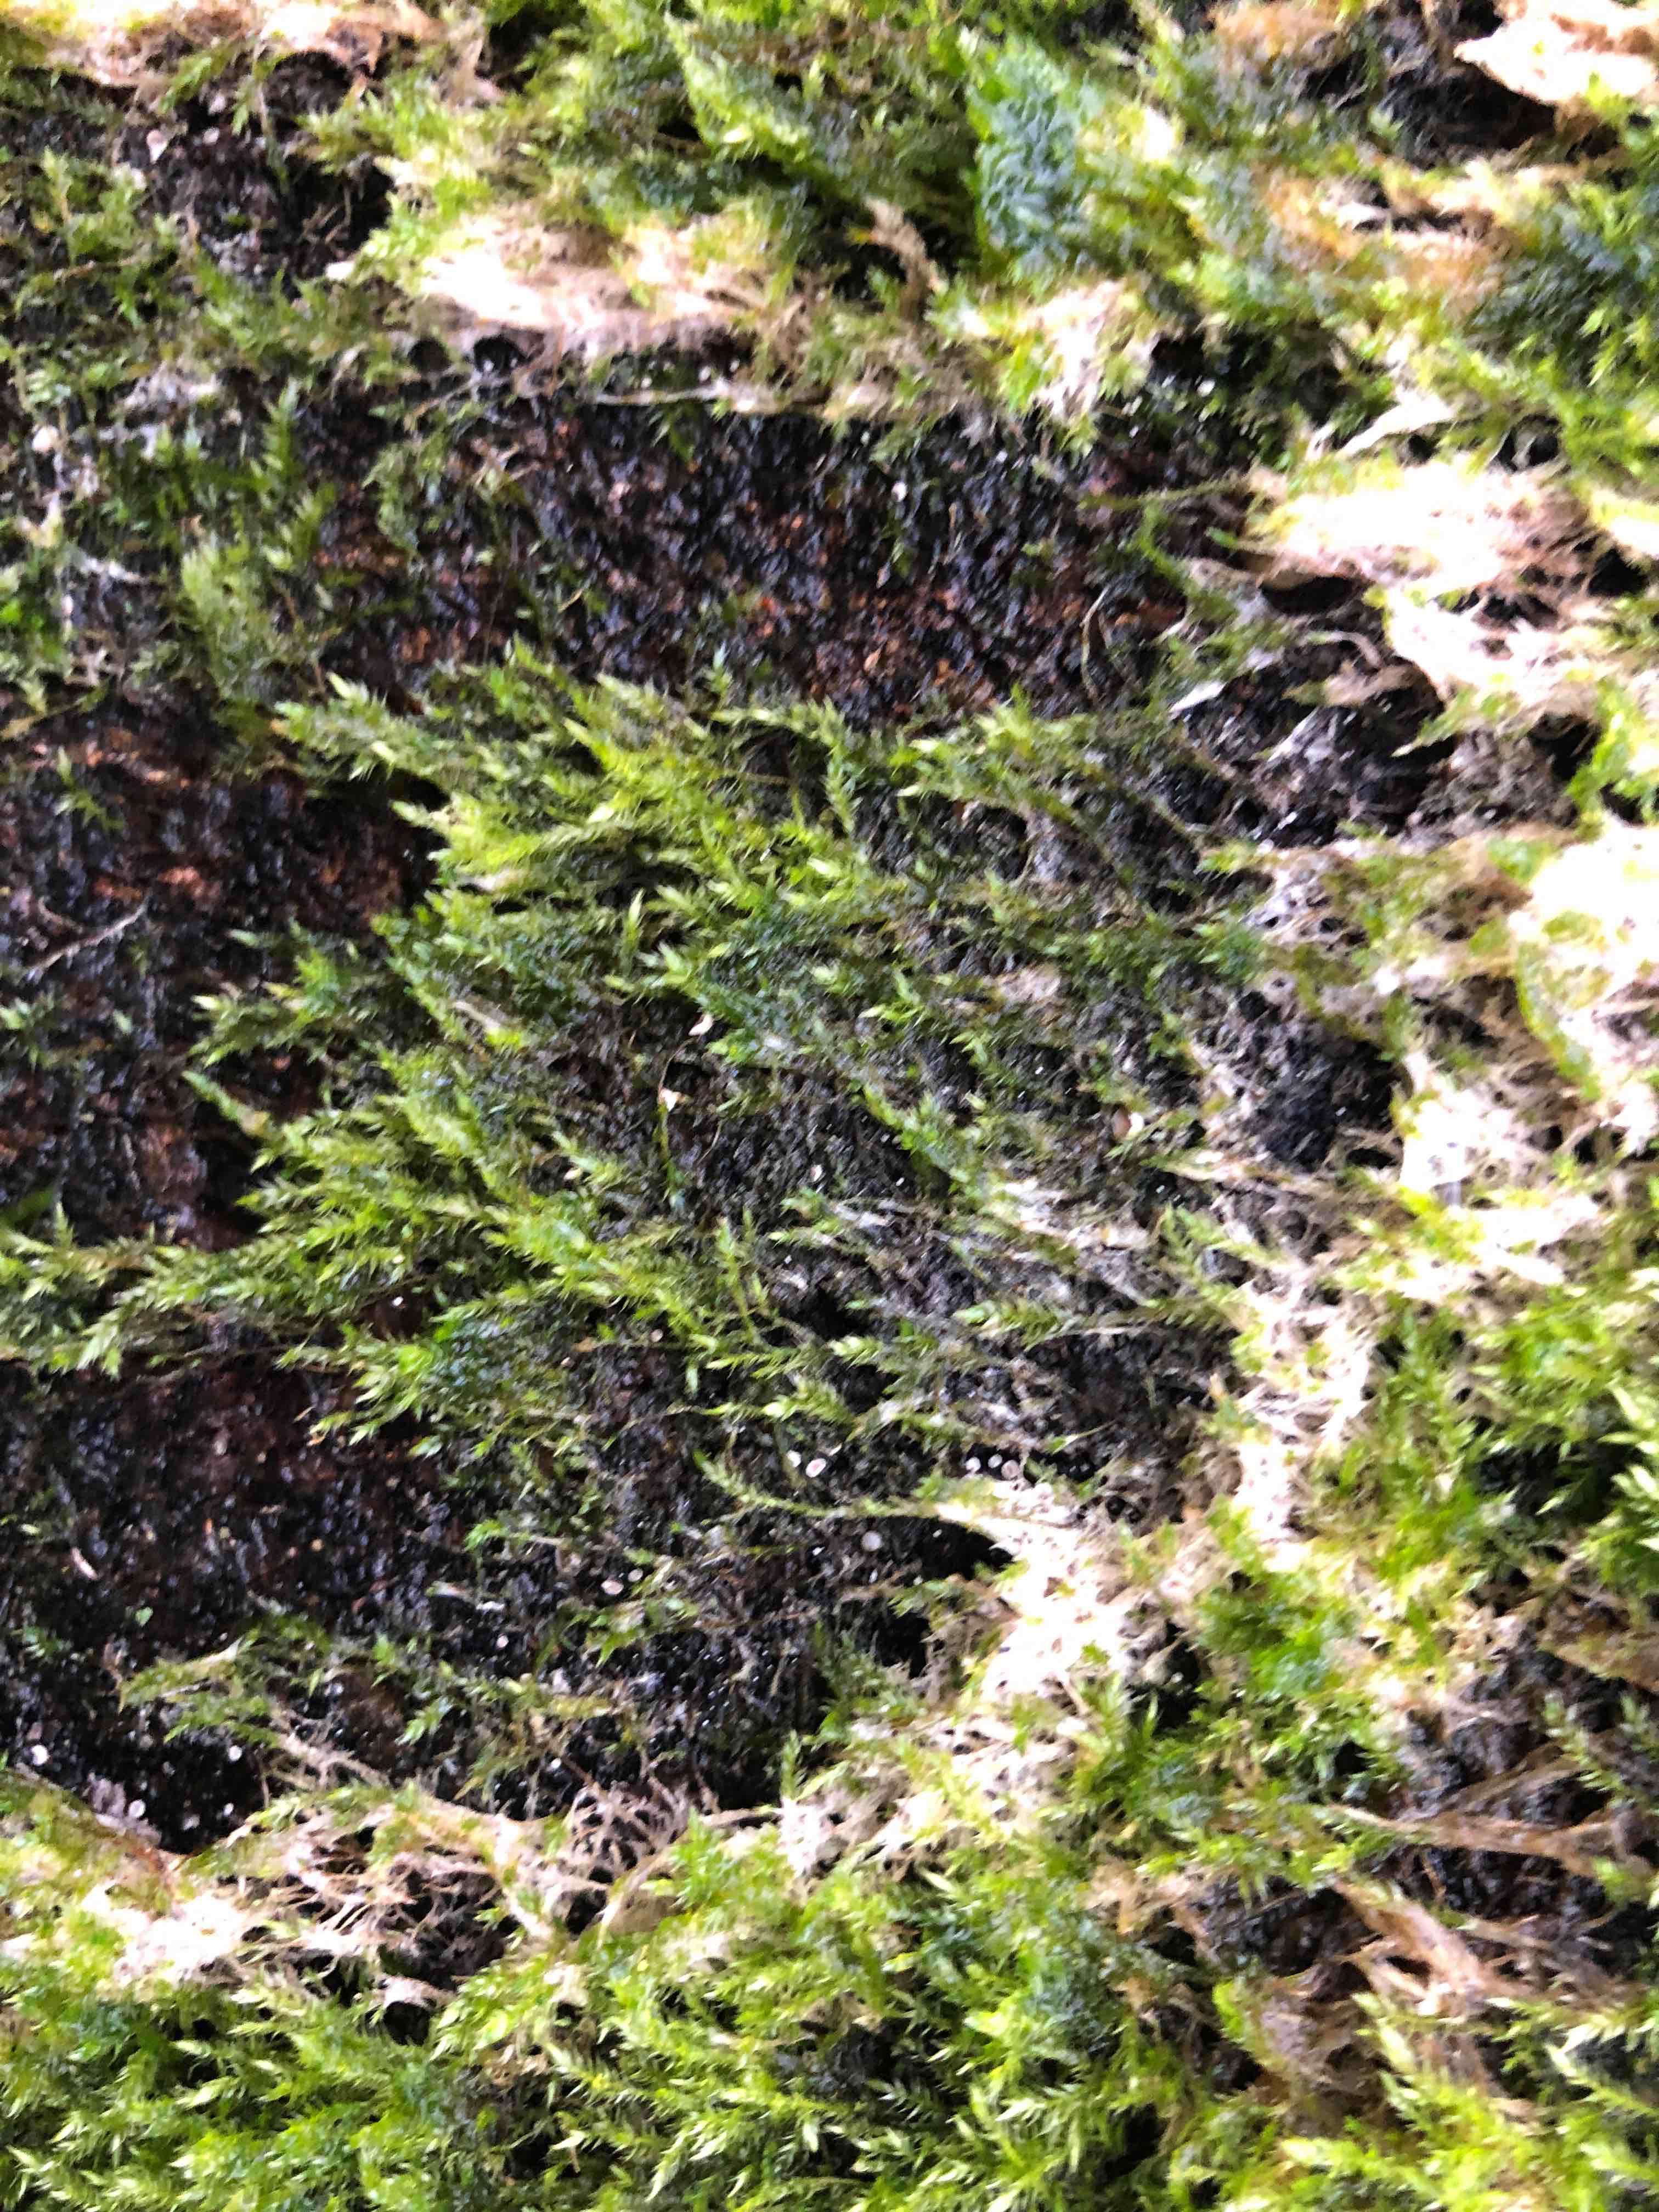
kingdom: Fungi
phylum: Basidiomycota
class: Agaricomycetes
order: Agaricales
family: Chromocyphellaceae
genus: Chromocyphella
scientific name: Chromocyphella muscicola
